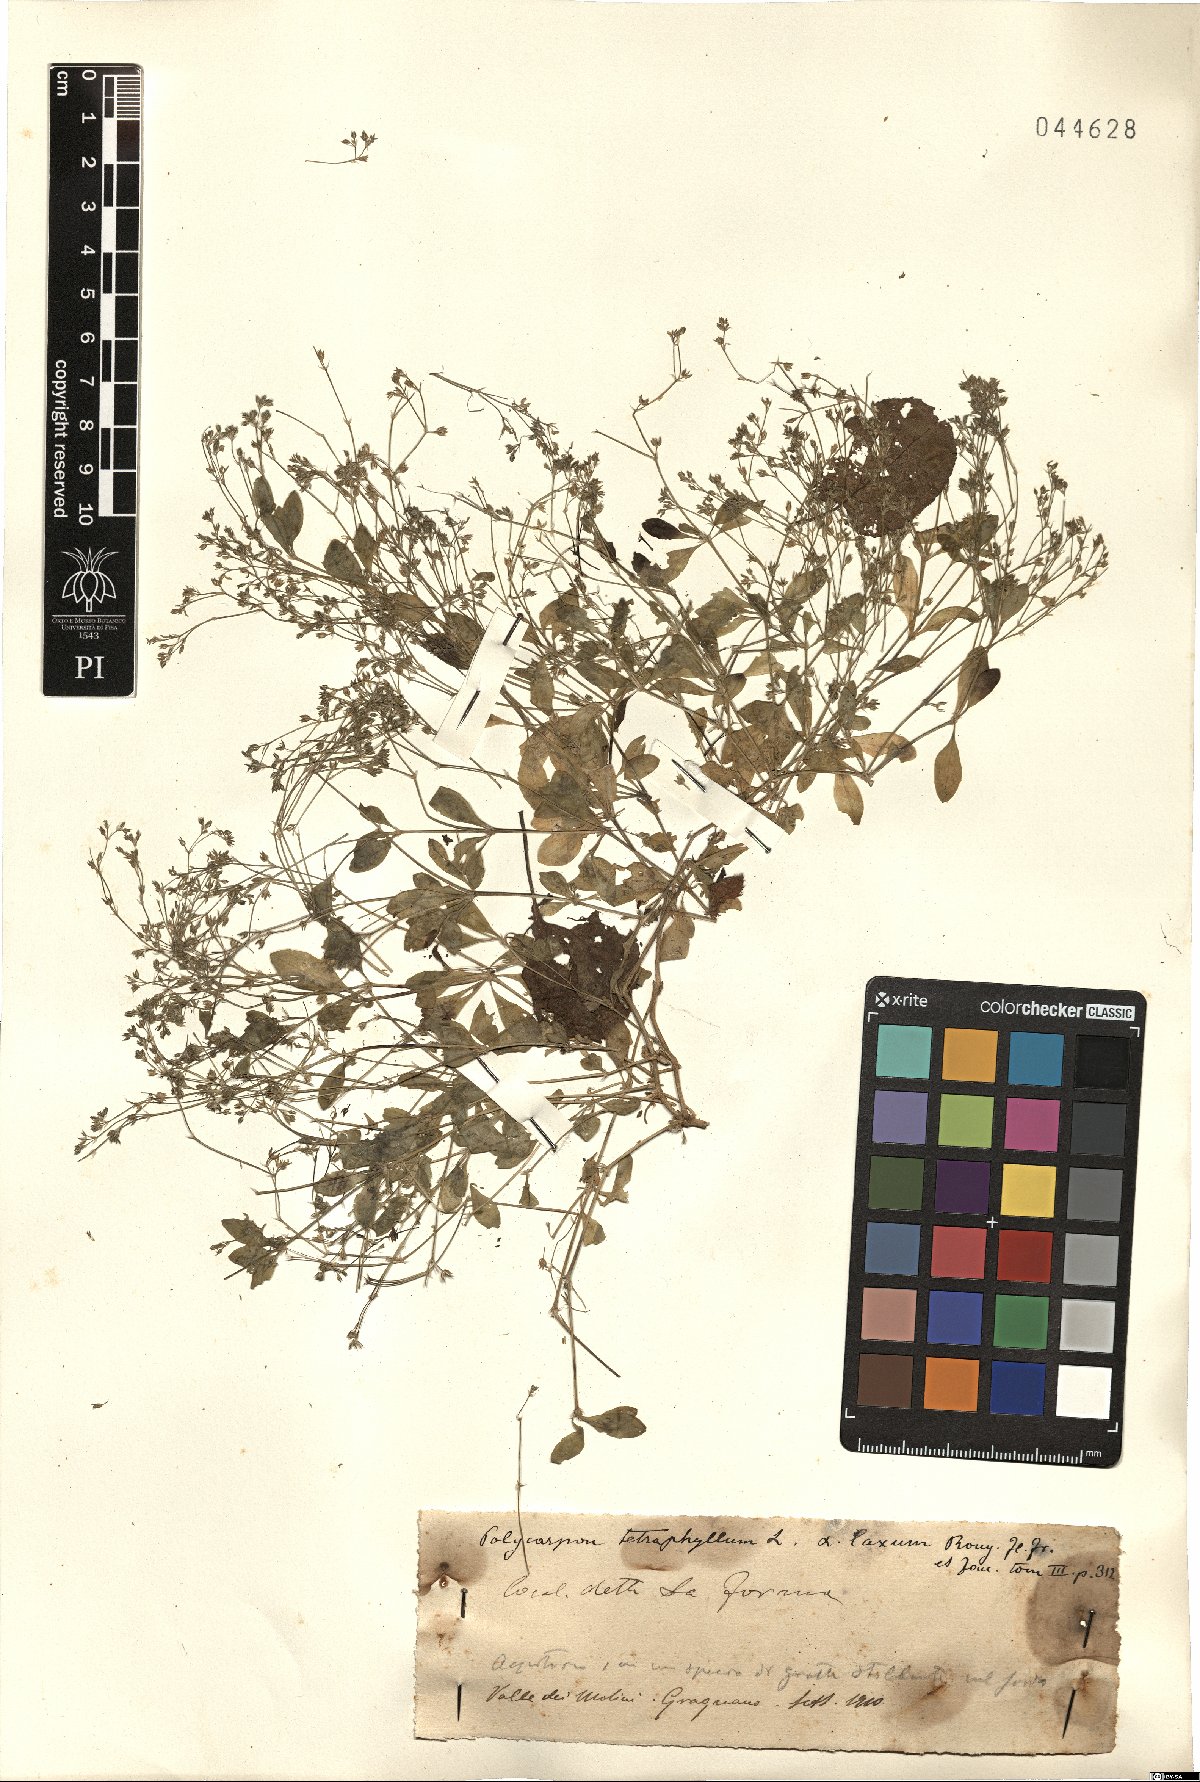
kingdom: Plantae
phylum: Tracheophyta
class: Magnoliopsida
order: Caryophyllales
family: Caryophyllaceae
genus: Polycarpon
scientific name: Polycarpon tetraphyllum
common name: Four-leaved all-seed
